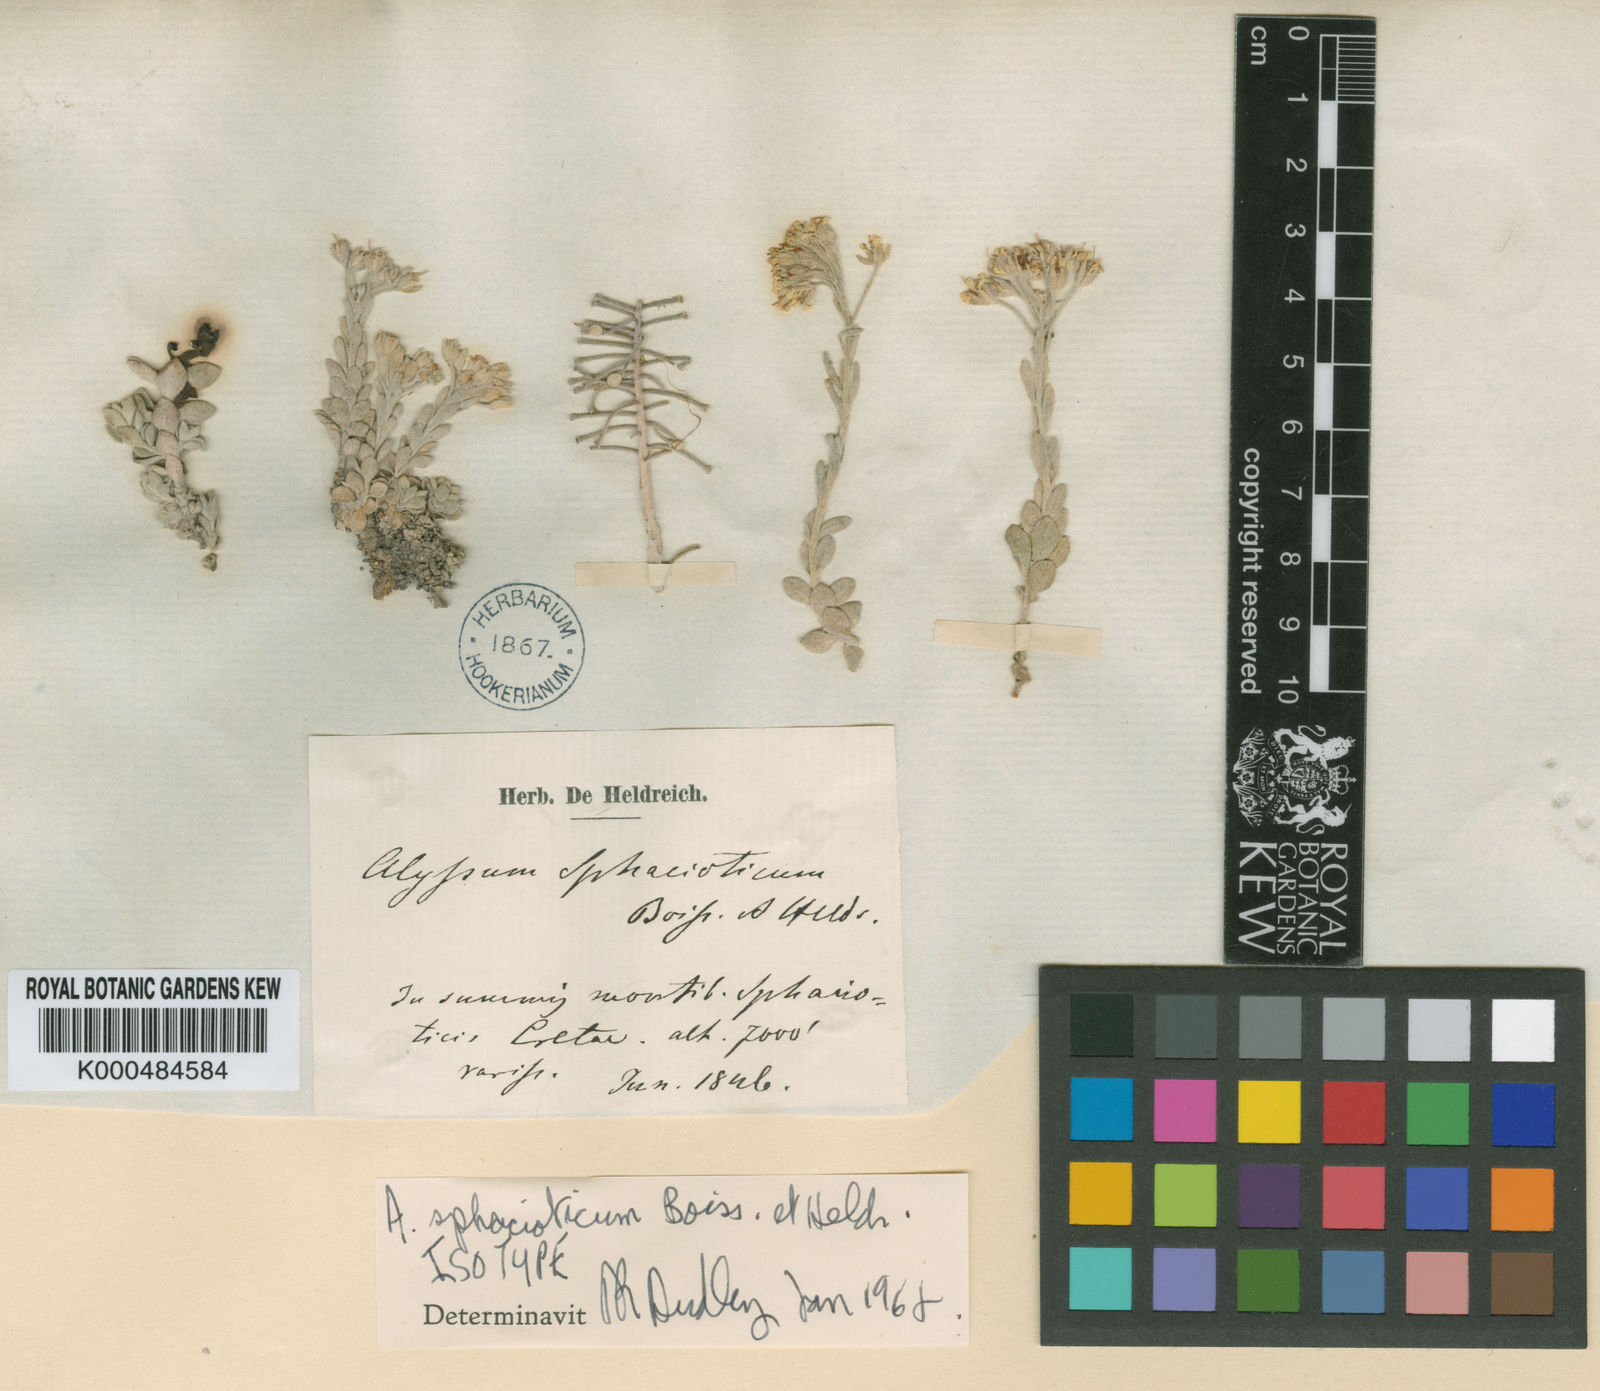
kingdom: Plantae
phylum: Tracheophyta
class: Magnoliopsida
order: Brassicales
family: Brassicaceae
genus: Alyssum
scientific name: Alyssum sphacioticum
